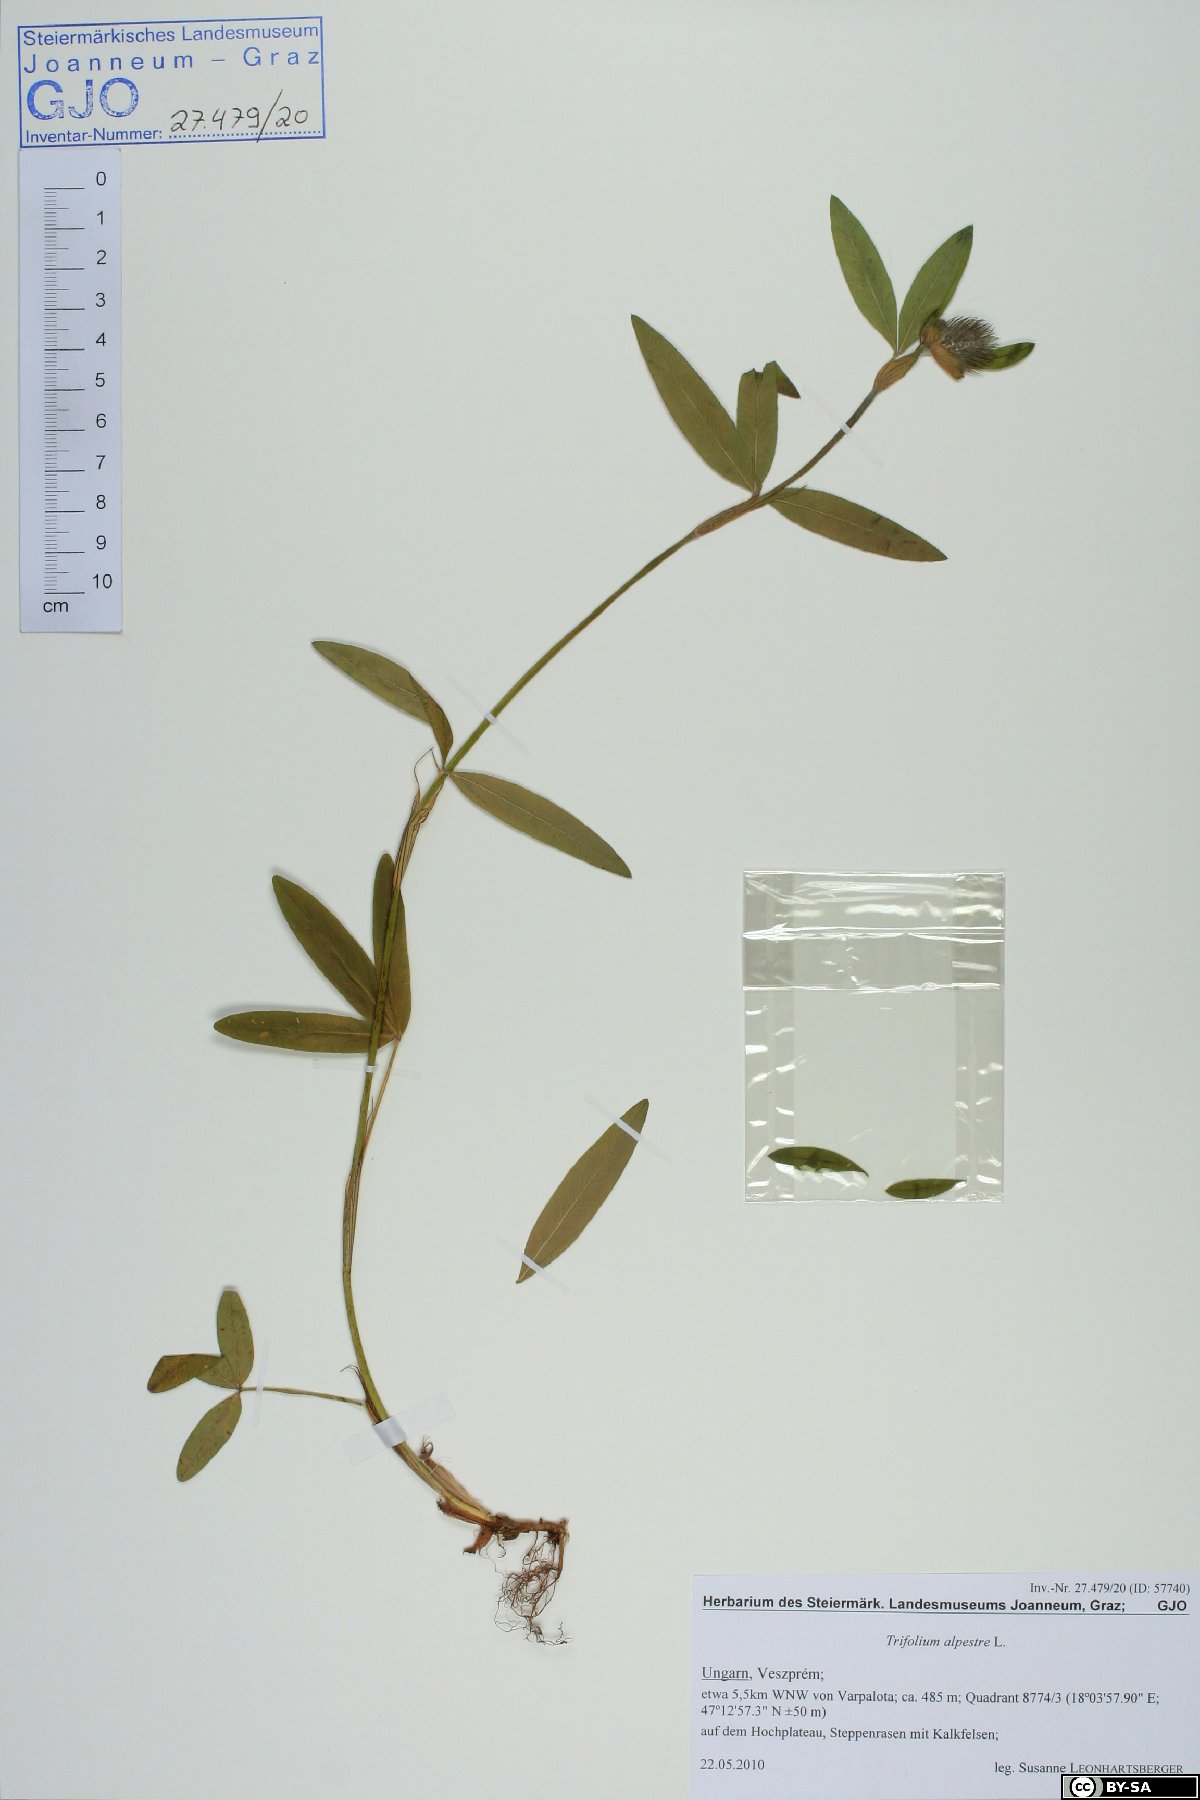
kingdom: Plantae
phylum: Tracheophyta
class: Magnoliopsida
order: Fabales
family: Fabaceae
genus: Trifolium
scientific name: Trifolium alpestre
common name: Owl-head clover
